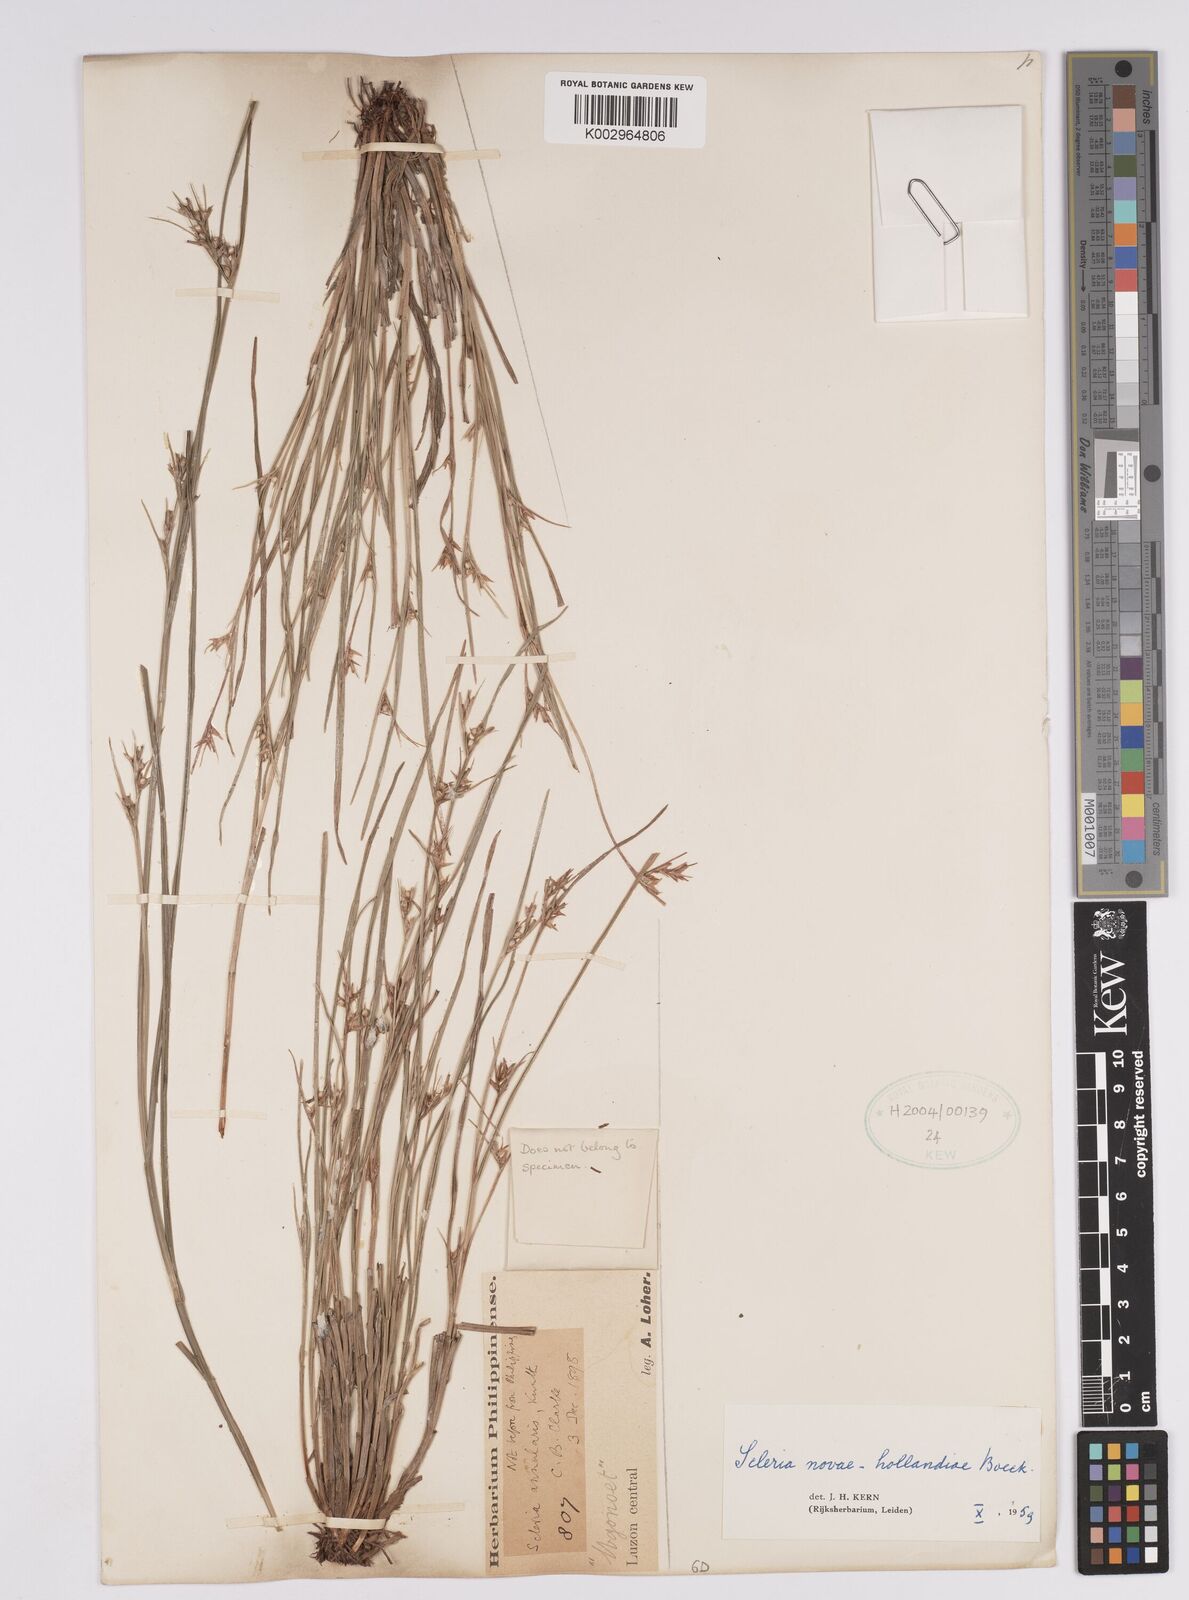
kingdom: Plantae
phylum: Tracheophyta
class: Liliopsida
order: Poales
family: Cyperaceae
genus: Scleria
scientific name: Scleria novae-hollandiae
